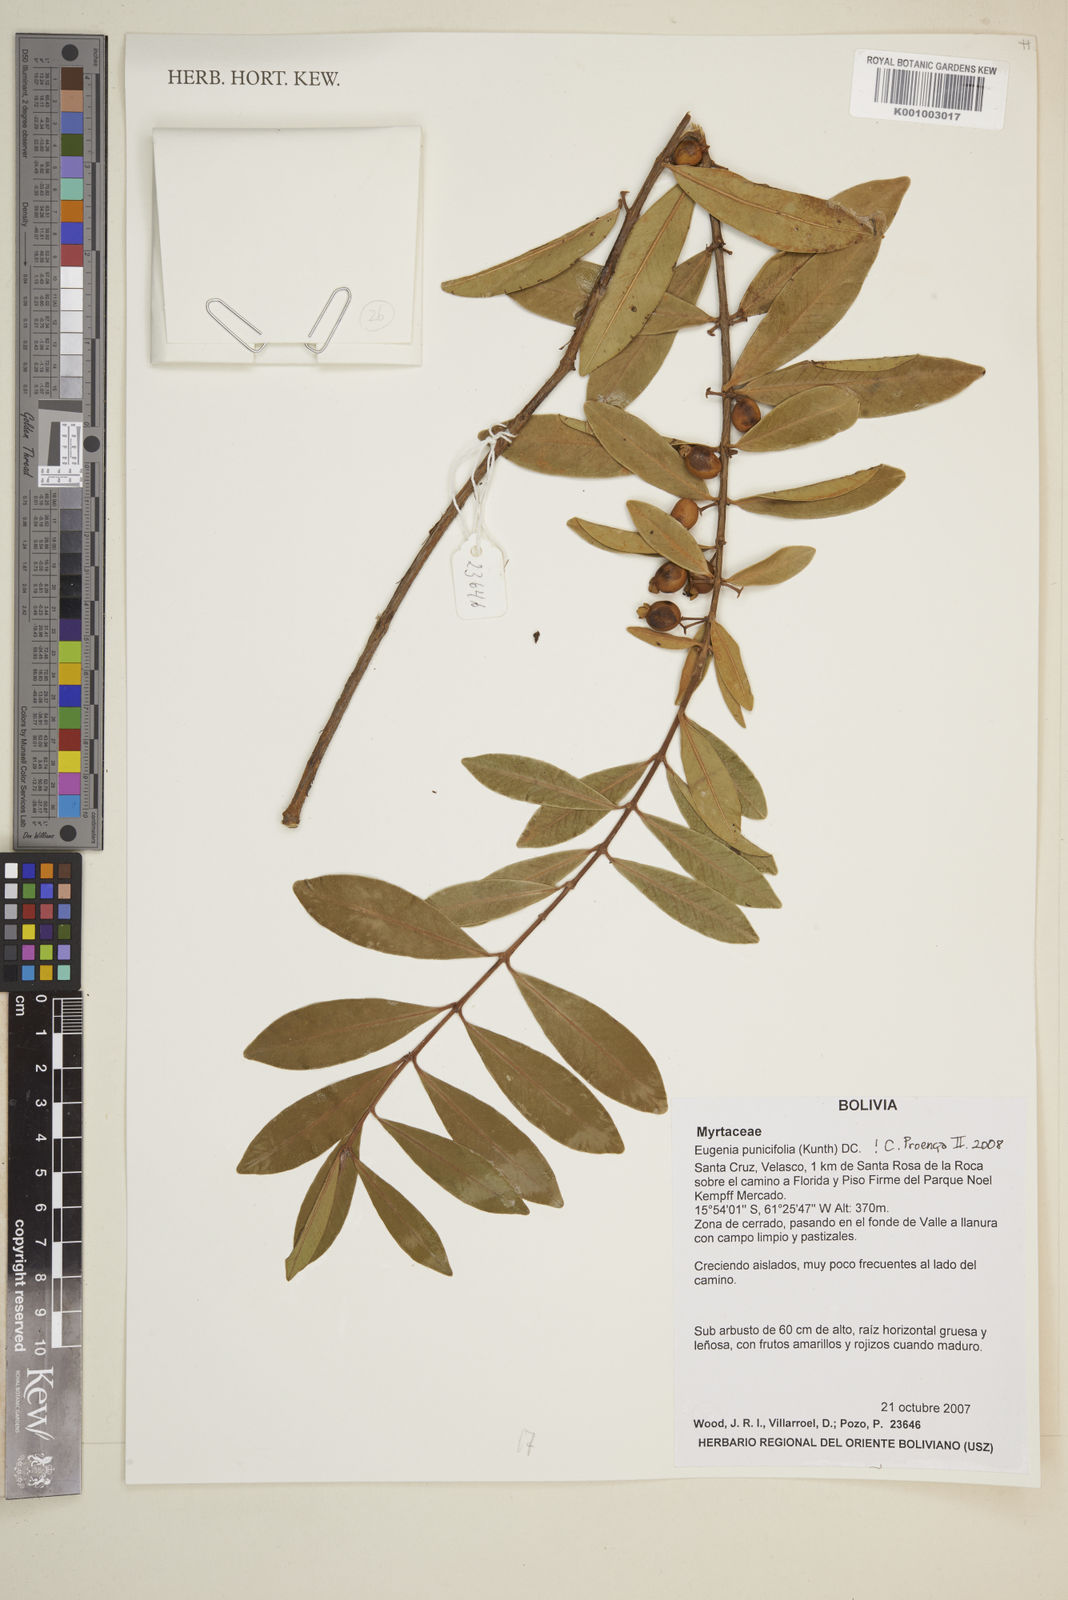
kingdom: Plantae
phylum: Tracheophyta
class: Magnoliopsida
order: Myrtales
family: Myrtaceae
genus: Eugenia
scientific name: Eugenia punicifolia
